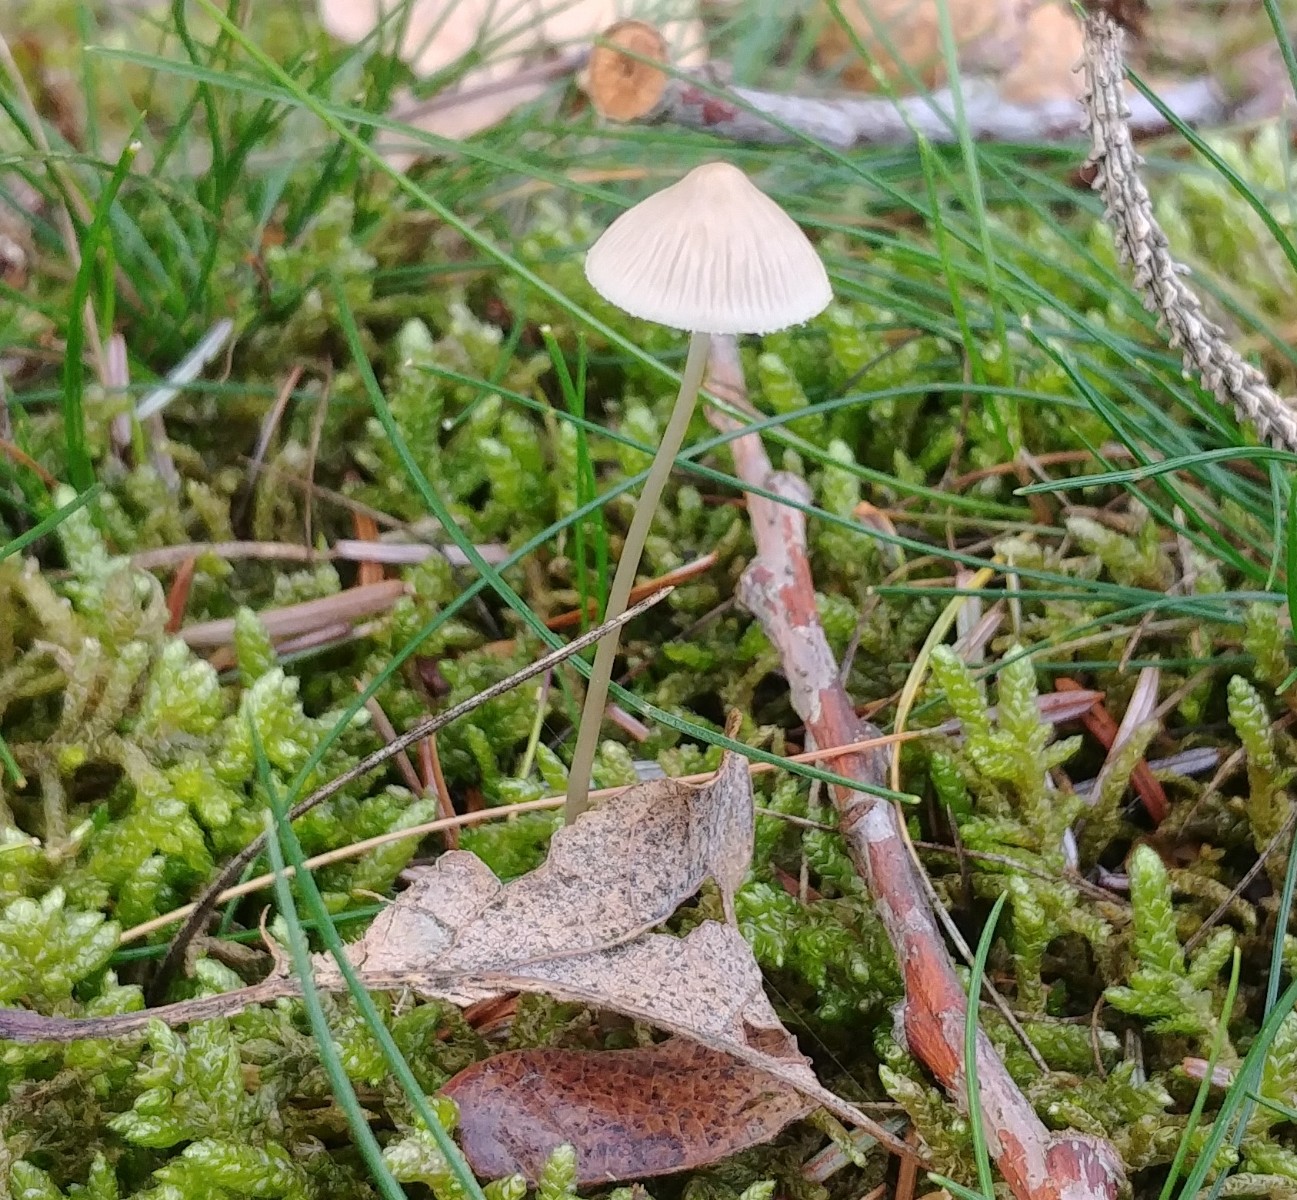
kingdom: Fungi
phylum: Basidiomycota
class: Agaricomycetes
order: Agaricales
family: Mycenaceae
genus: Mycena
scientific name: Mycena
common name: huesvamp
